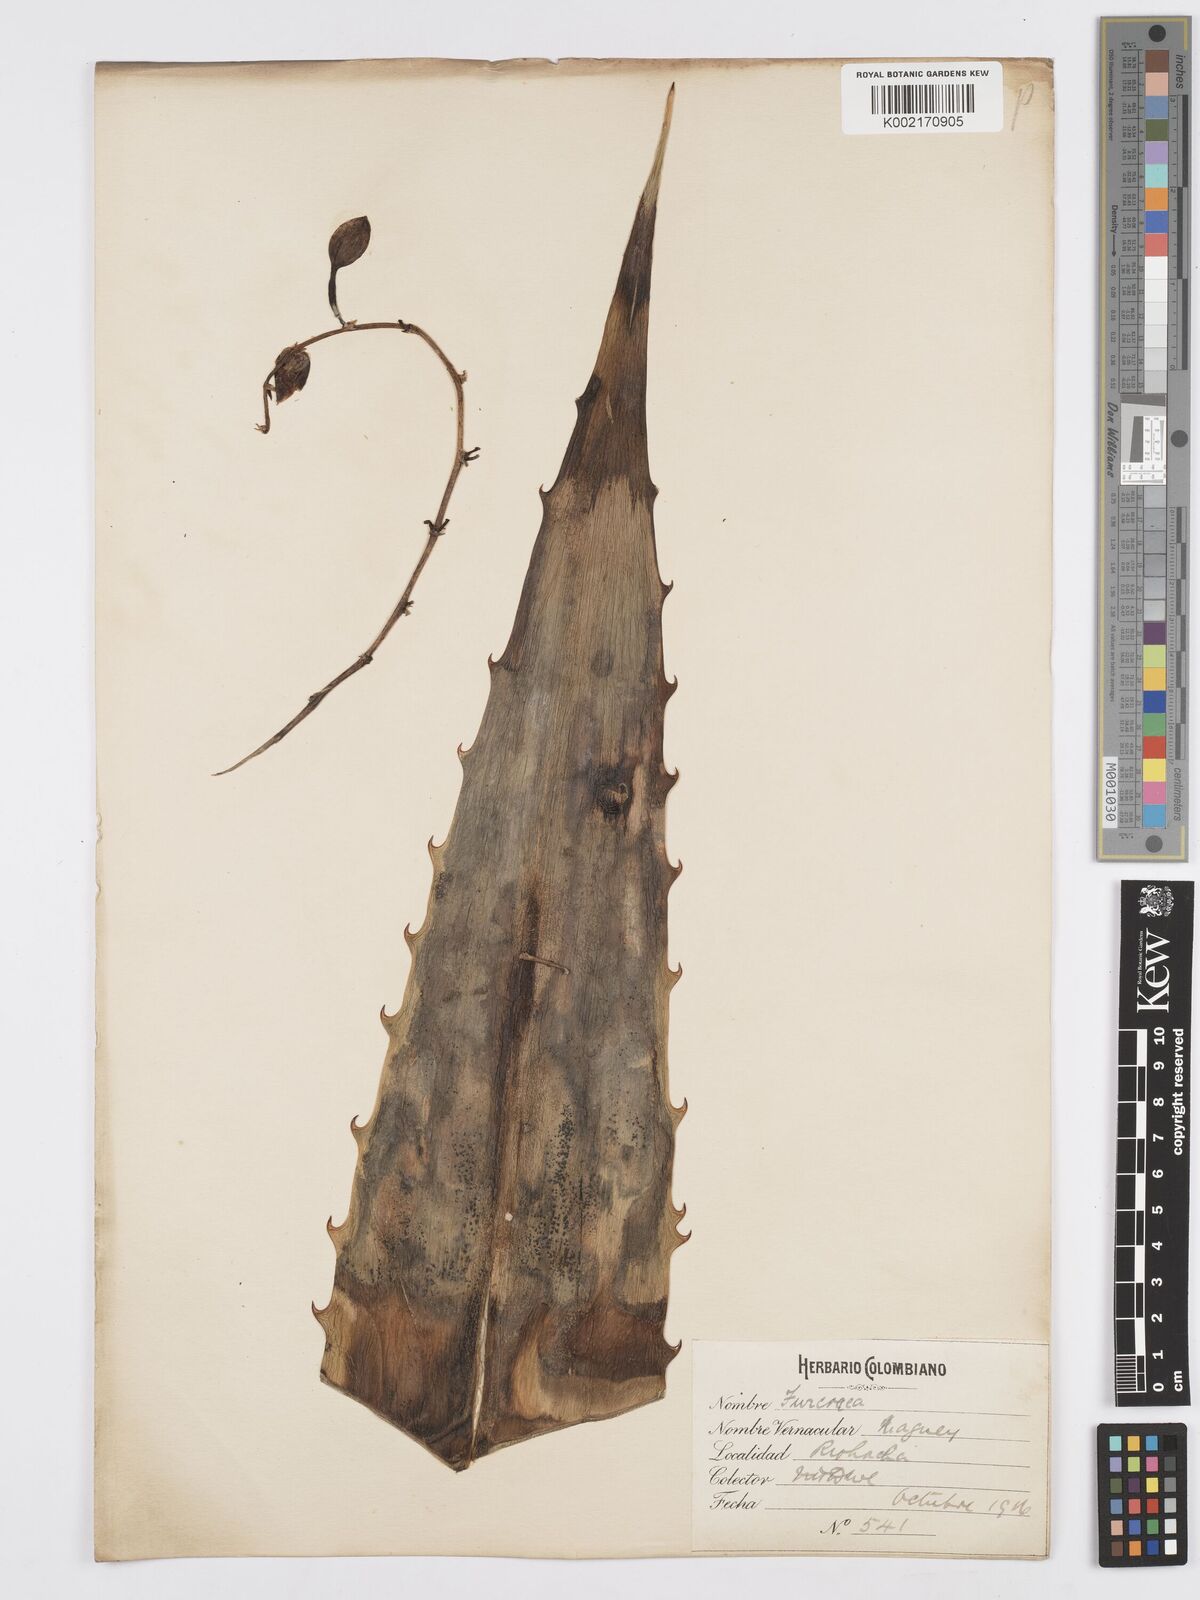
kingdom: Plantae
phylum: Tracheophyta
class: Liliopsida
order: Asparagales
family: Asparagaceae
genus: Furcraea
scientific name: Furcraea hexapetala
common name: Cuban-hemp
